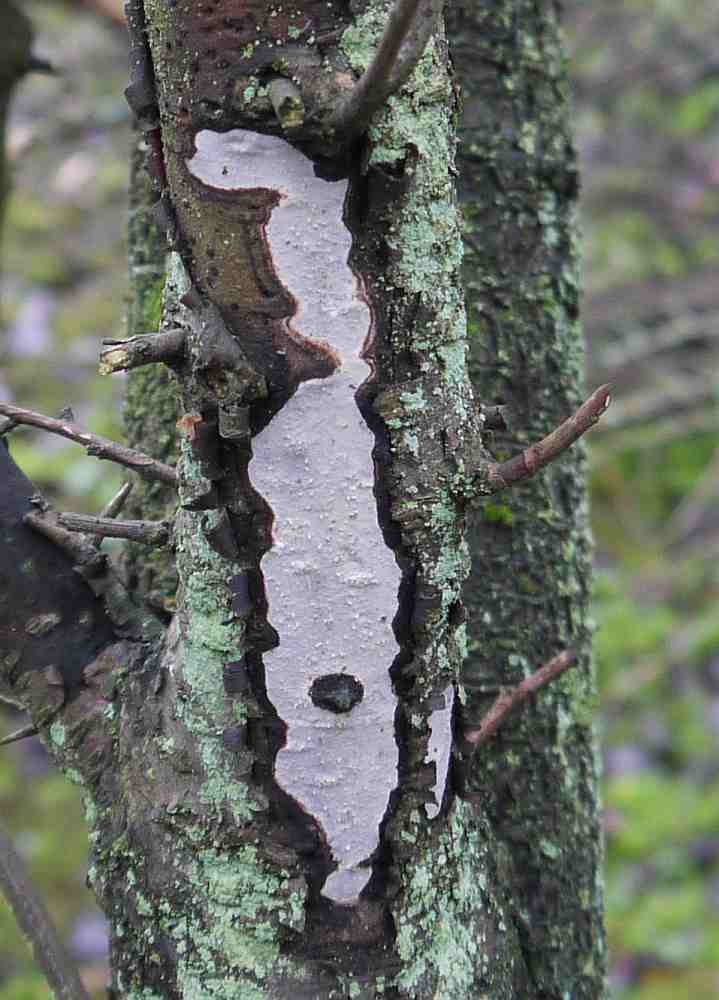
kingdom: Fungi
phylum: Basidiomycota
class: Agaricomycetes
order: Corticiales
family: Vuilleminiaceae
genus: Vuilleminia
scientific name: Vuilleminia cystidiata
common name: tjørne-barksprænger
